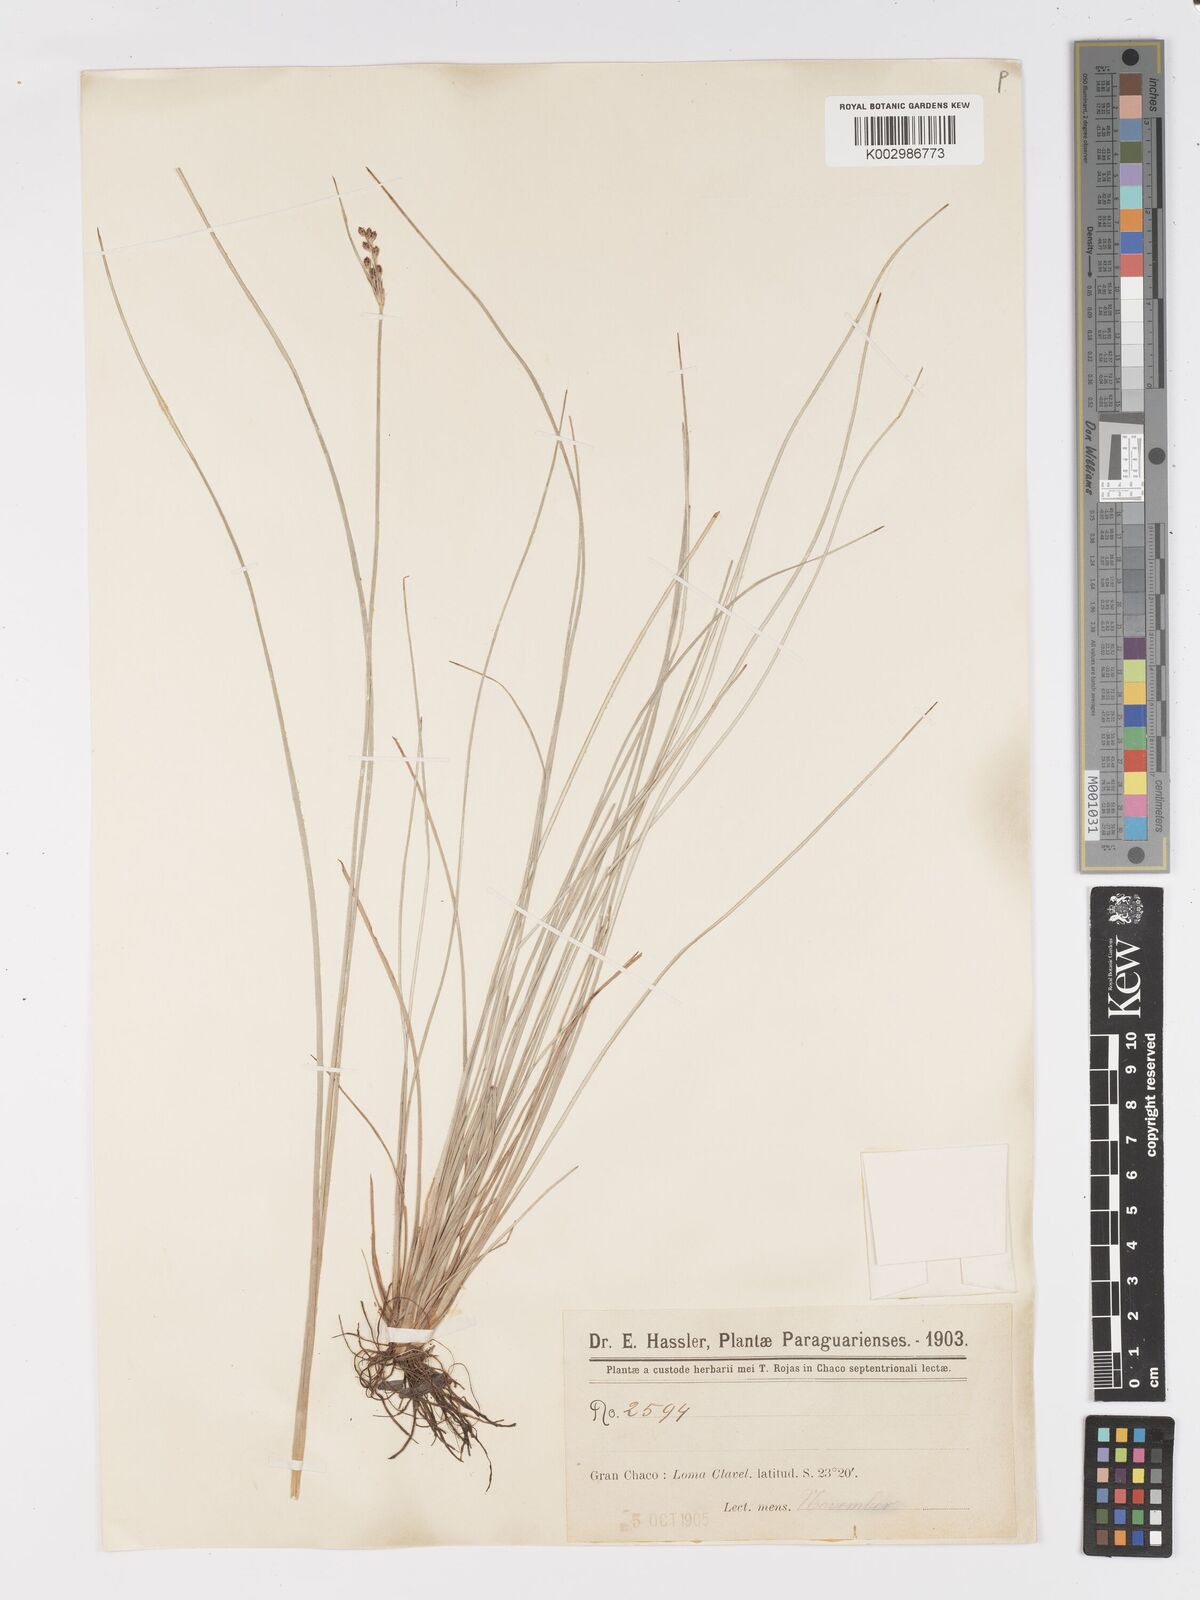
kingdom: Plantae
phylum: Tracheophyta
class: Liliopsida
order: Poales
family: Cyperaceae
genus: Fimbristylis
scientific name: Fimbristylis dichotoma
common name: Forked fimbry
